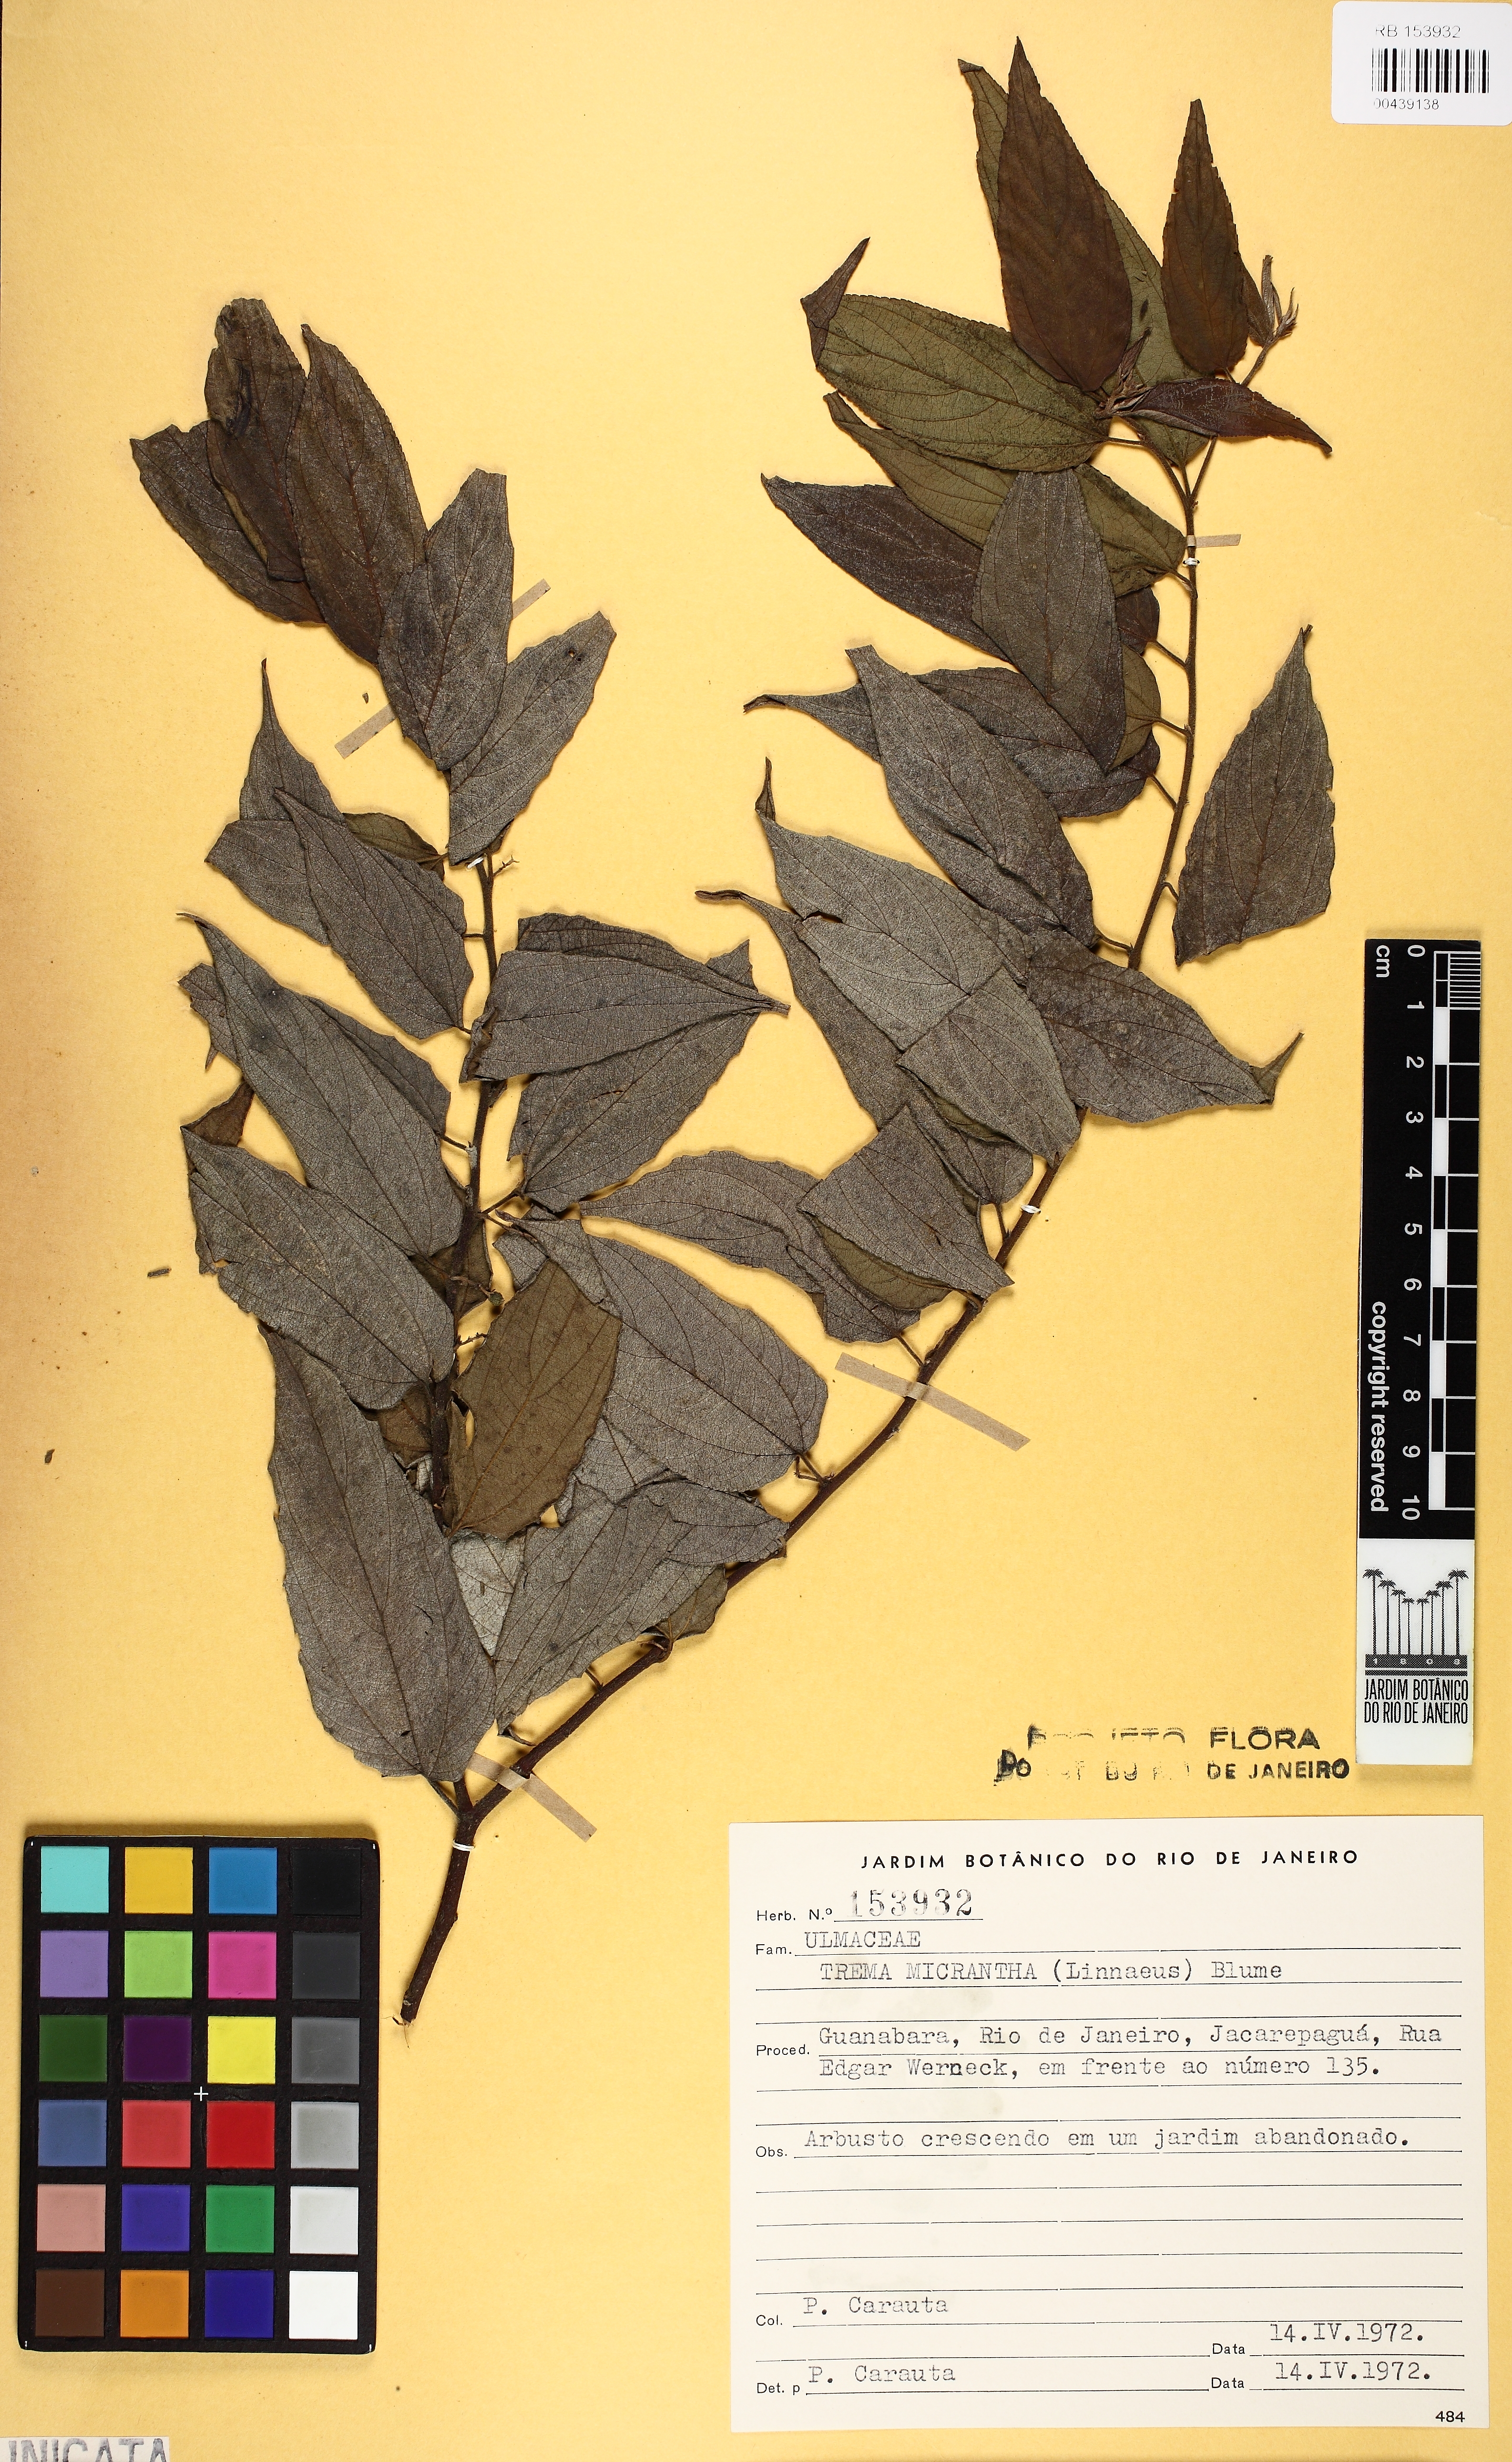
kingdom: Plantae
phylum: Tracheophyta
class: Magnoliopsida
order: Rosales
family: Cannabaceae
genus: Trema
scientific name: Trema micranthum
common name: Jamaican nettletree
